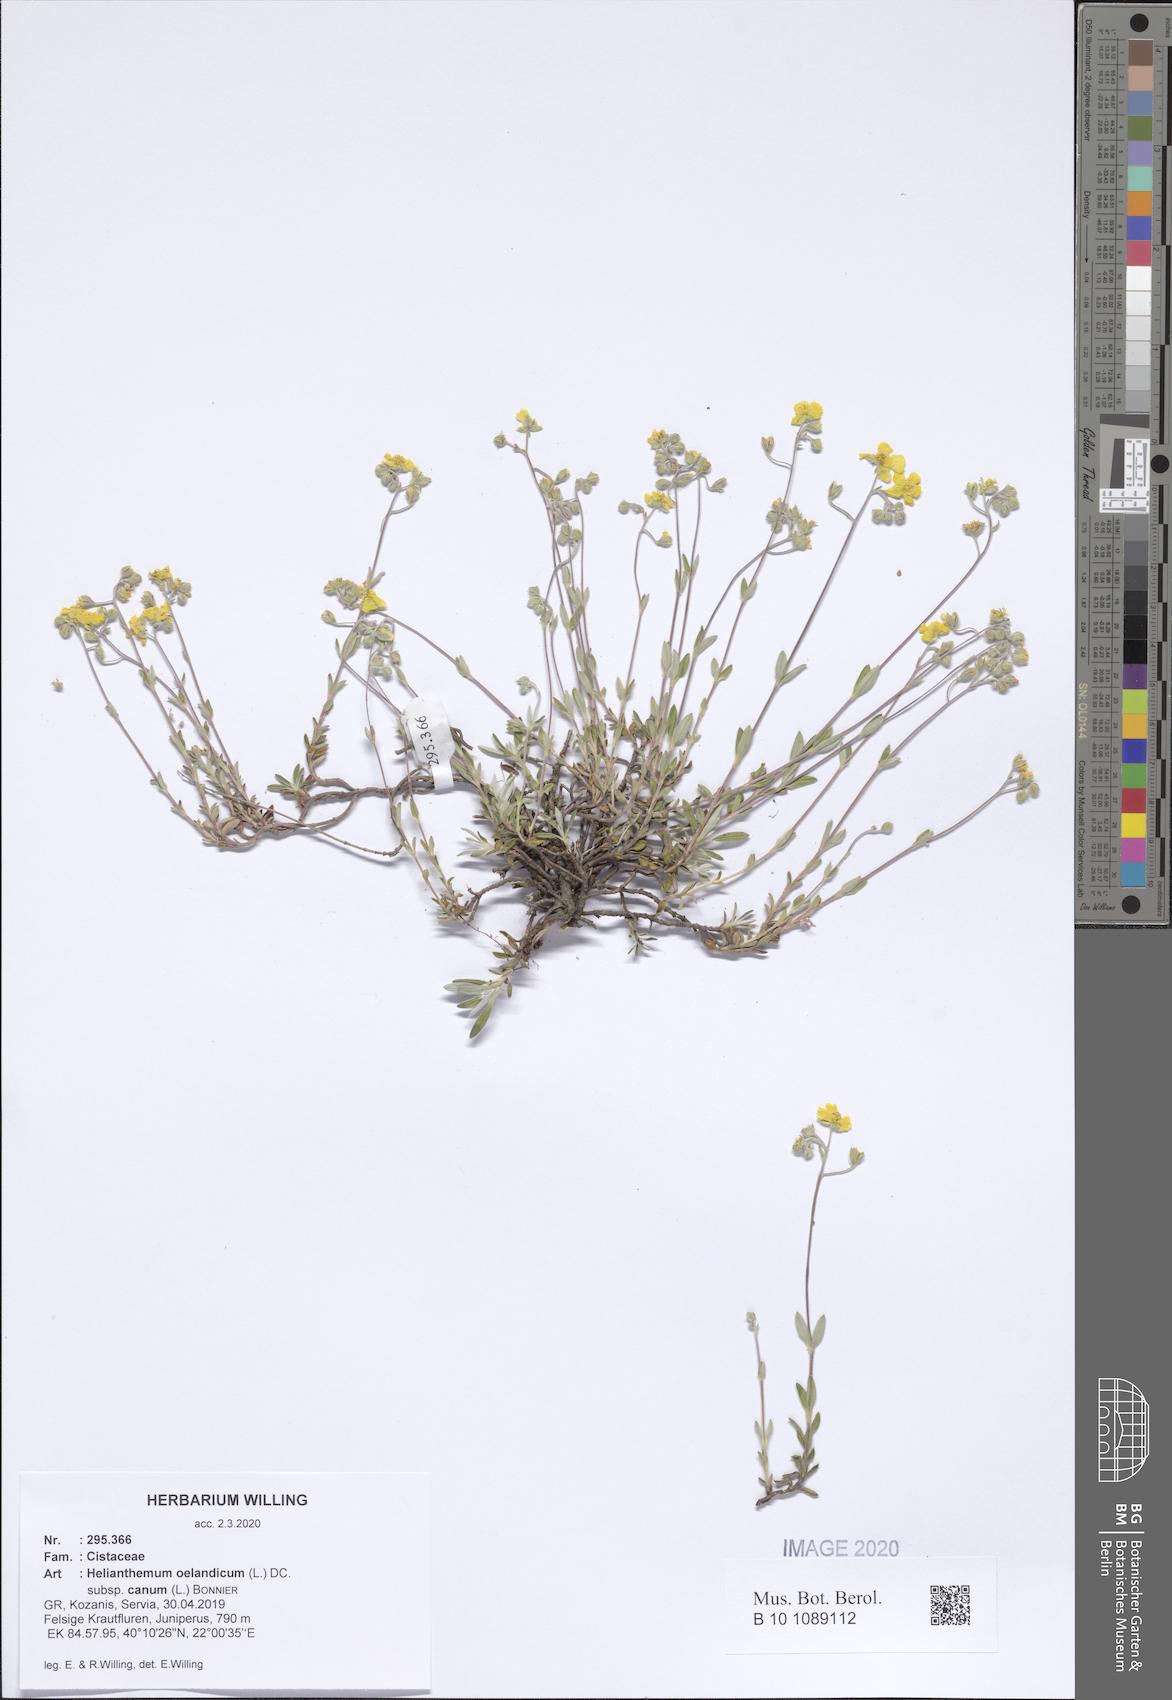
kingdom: Plantae
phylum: Tracheophyta
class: Magnoliopsida
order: Malvales
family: Cistaceae
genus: Helianthemum
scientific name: Helianthemum canum
